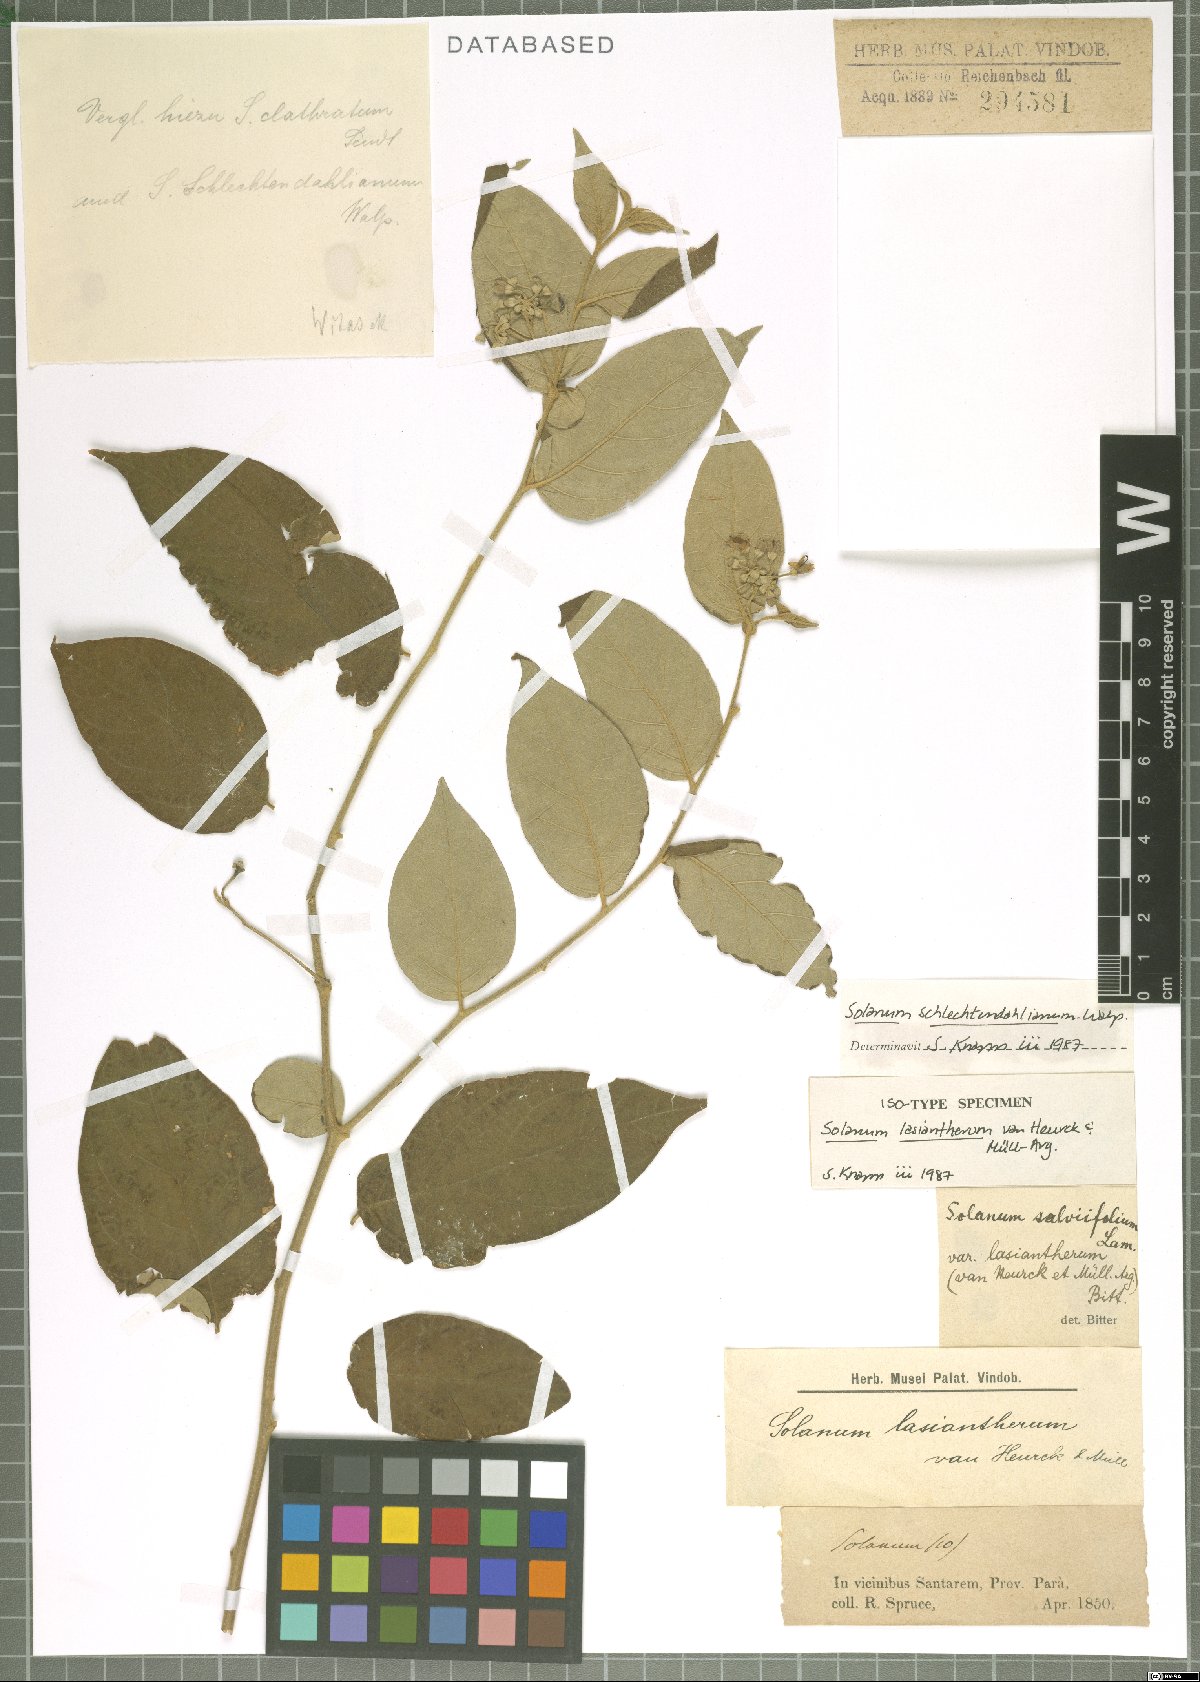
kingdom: Plantae
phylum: Tracheophyta
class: Magnoliopsida
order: Solanales
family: Solanaceae
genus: Solanum
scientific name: Solanum schlechtendalianum
